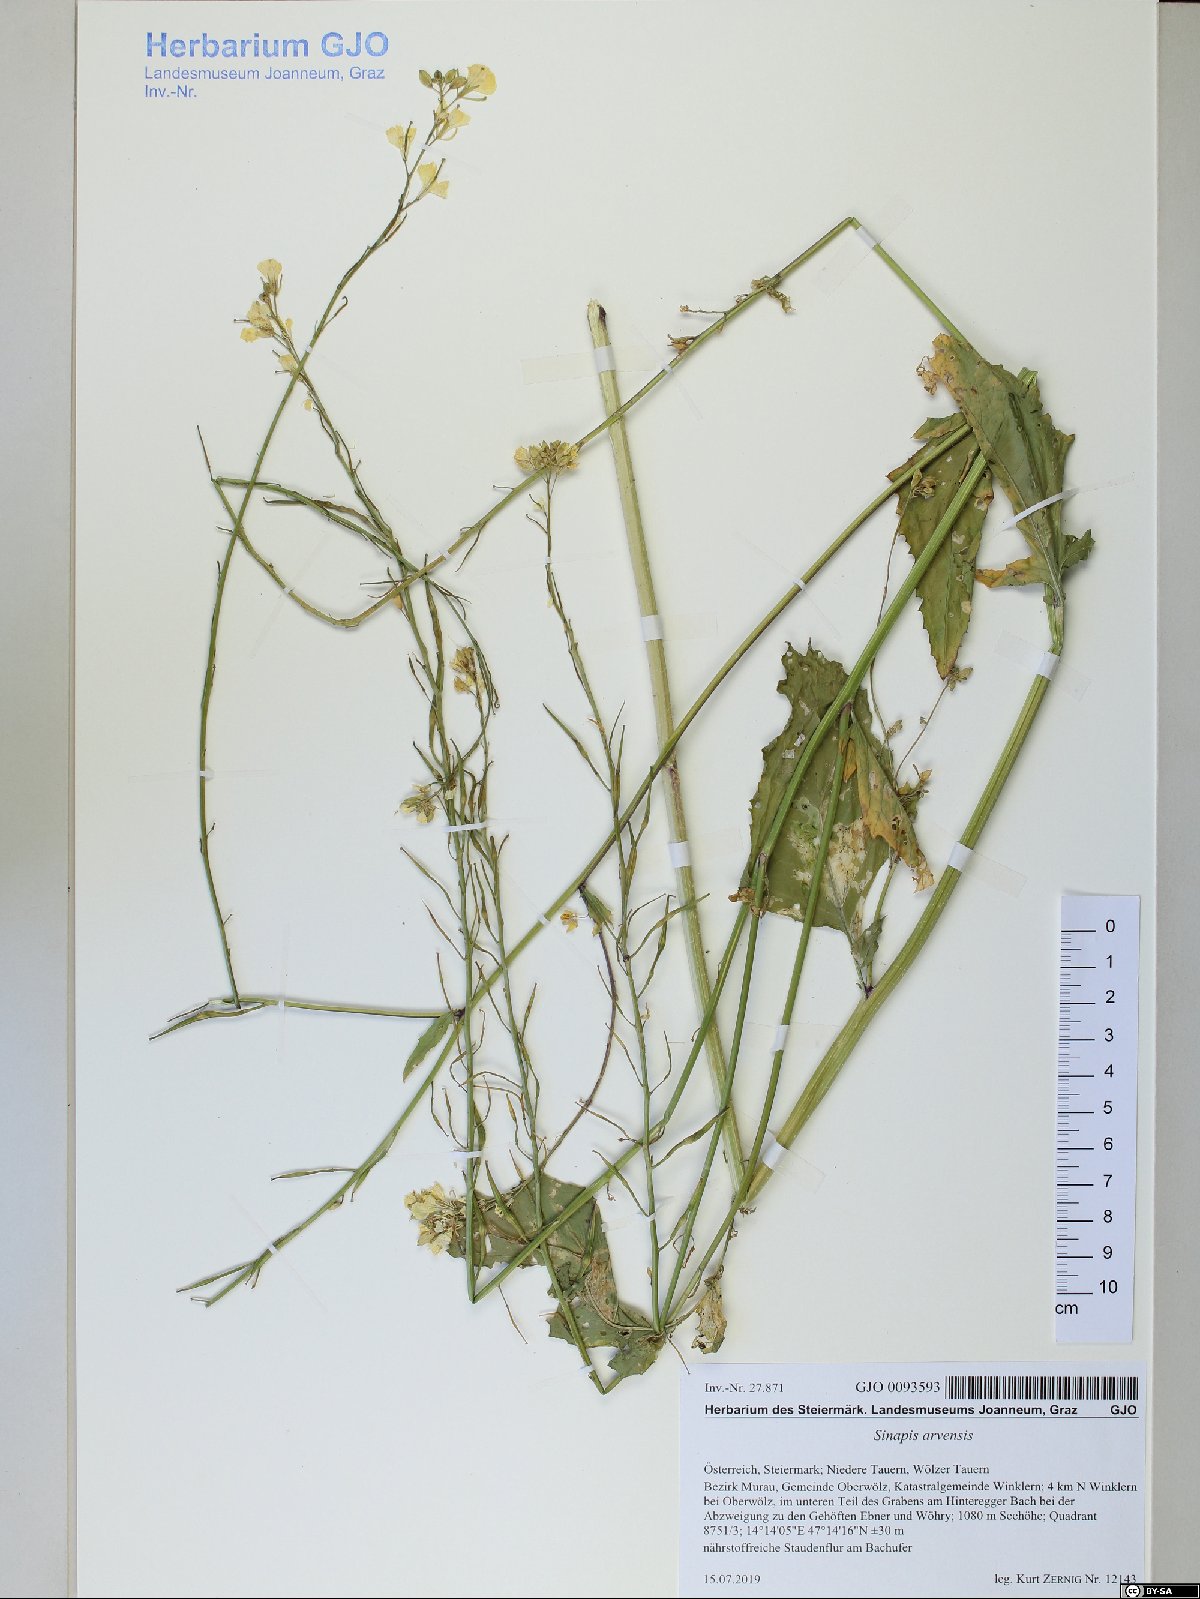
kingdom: Plantae
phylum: Tracheophyta
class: Magnoliopsida
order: Brassicales
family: Brassicaceae
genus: Sinapis
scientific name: Sinapis arvensis
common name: Charlock
